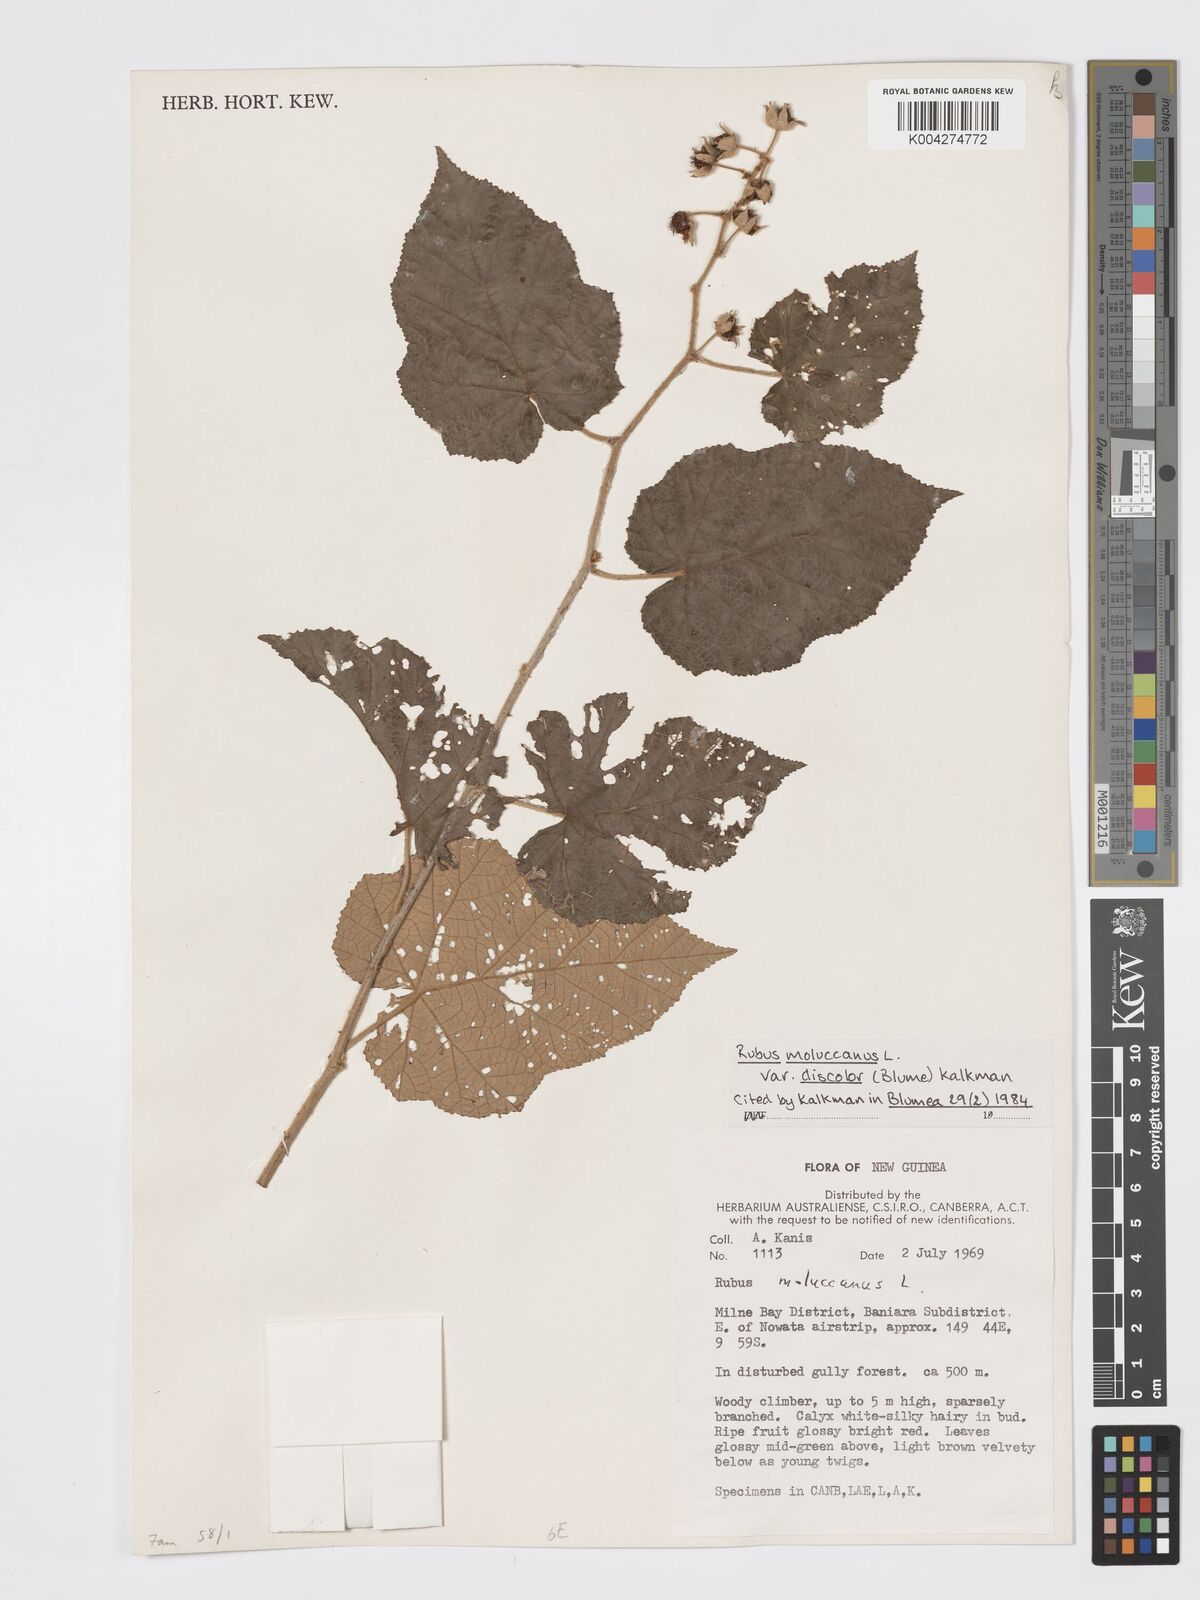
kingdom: Plantae
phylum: Tracheophyta
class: Magnoliopsida
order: Rosales
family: Rosaceae
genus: Rubus
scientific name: Rubus moluccanus
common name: Wild raspberry
